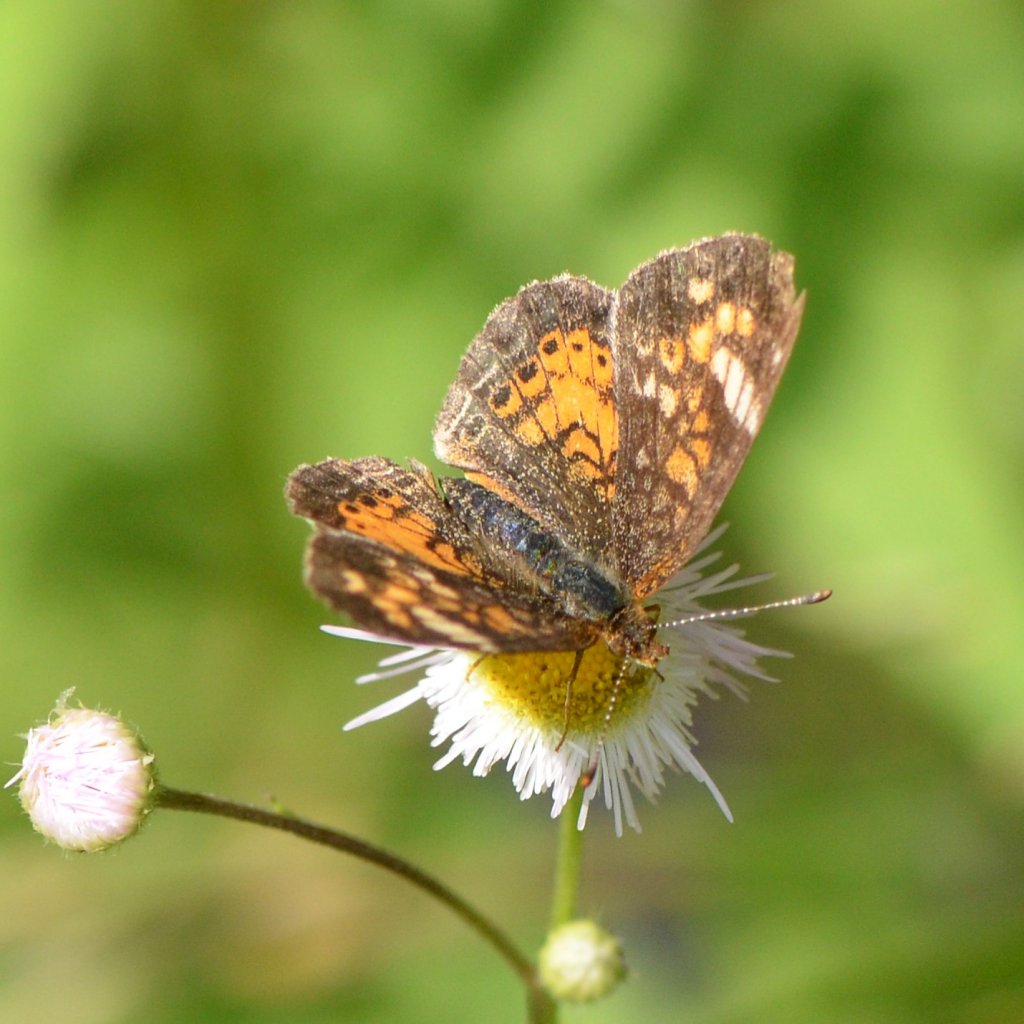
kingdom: Animalia
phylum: Arthropoda
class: Insecta
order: Lepidoptera
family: Nymphalidae
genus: Phyciodes
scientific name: Phyciodes tharos
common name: Northern Crescent
